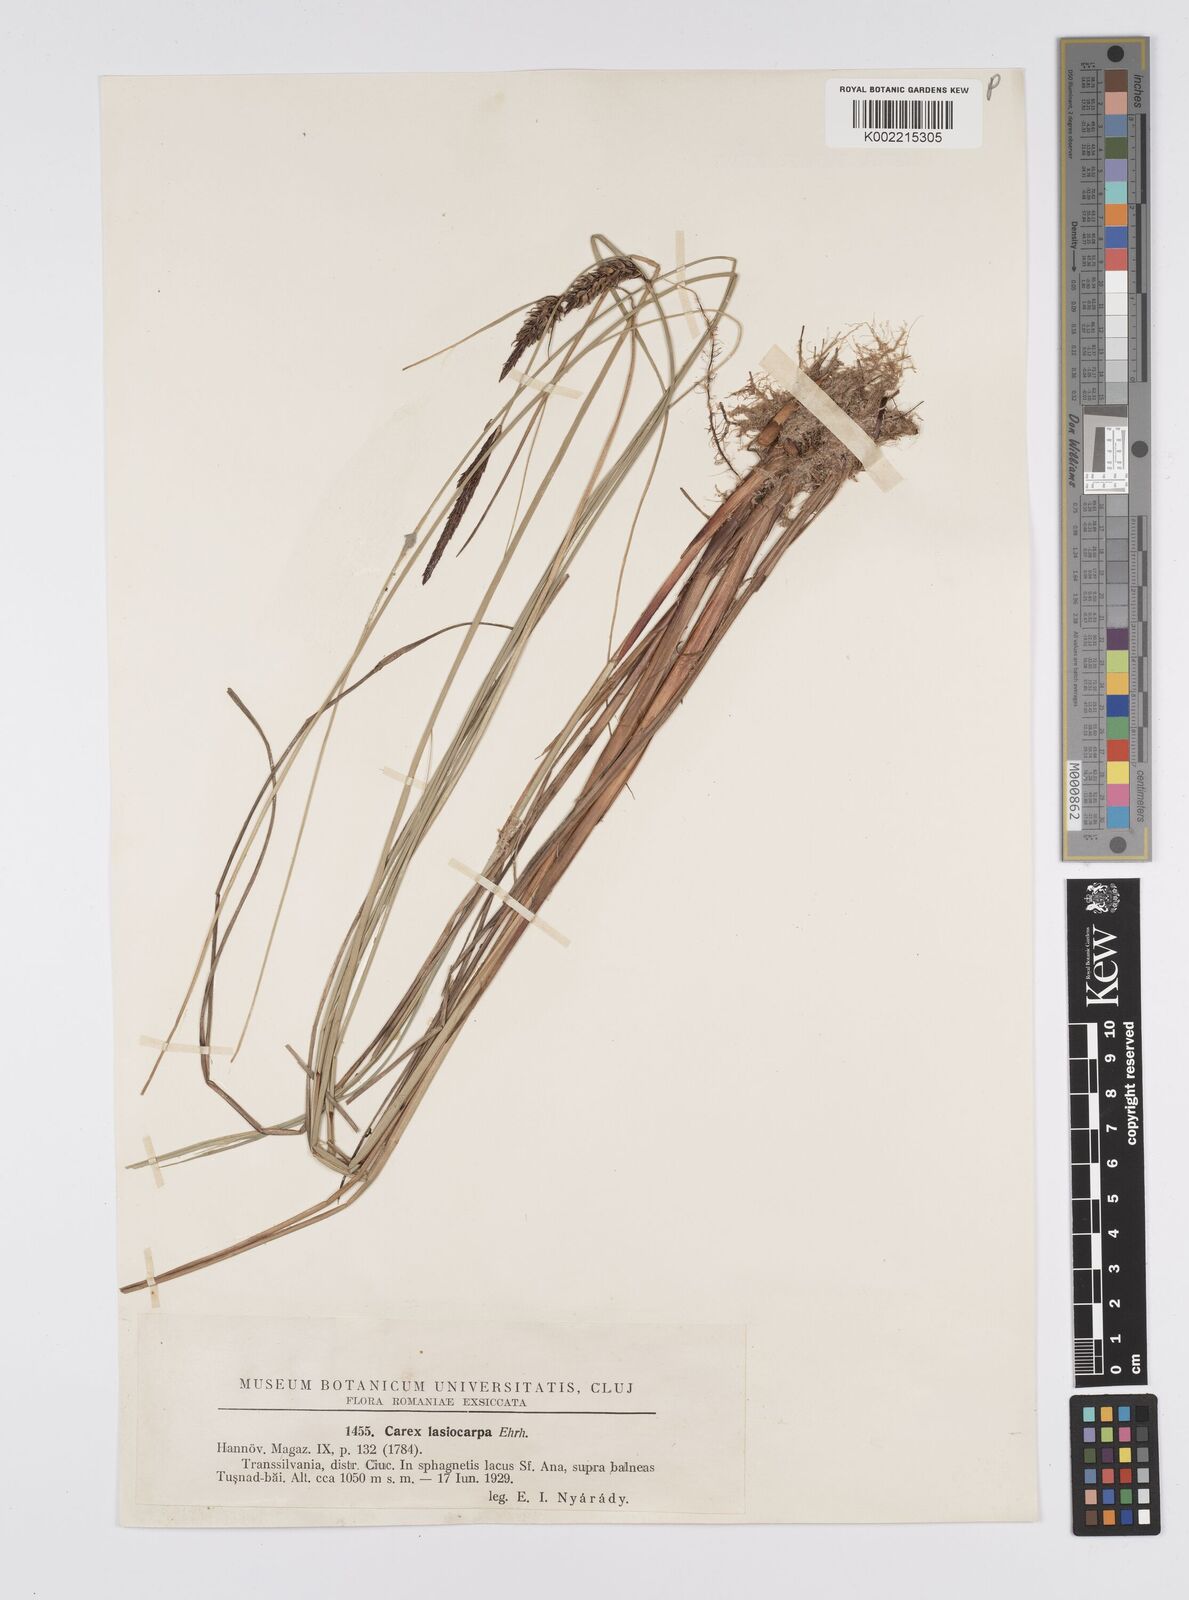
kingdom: Plantae
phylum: Tracheophyta
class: Liliopsida
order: Poales
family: Cyperaceae
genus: Carex
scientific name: Carex lasiocarpa
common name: Slender sedge
